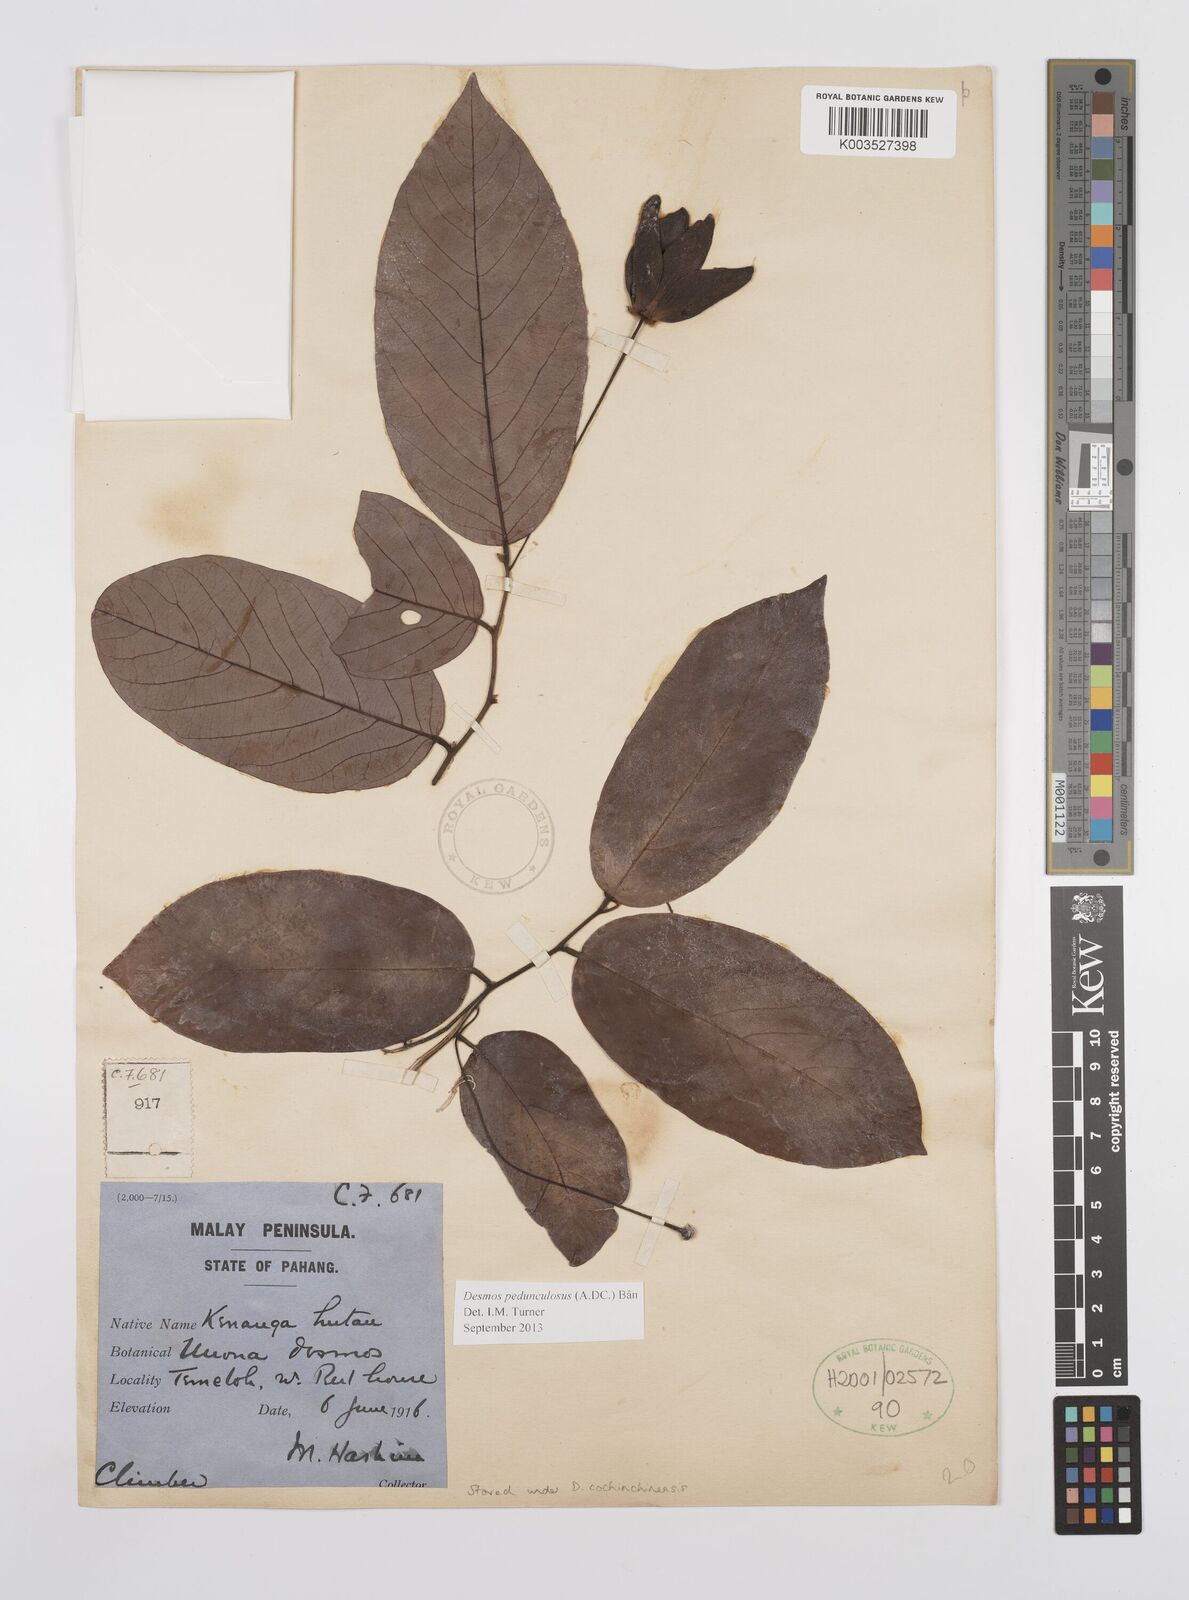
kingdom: Plantae
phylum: Tracheophyta
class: Magnoliopsida
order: Magnoliales
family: Annonaceae
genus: Desmos
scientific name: Desmos cochinchinensis
